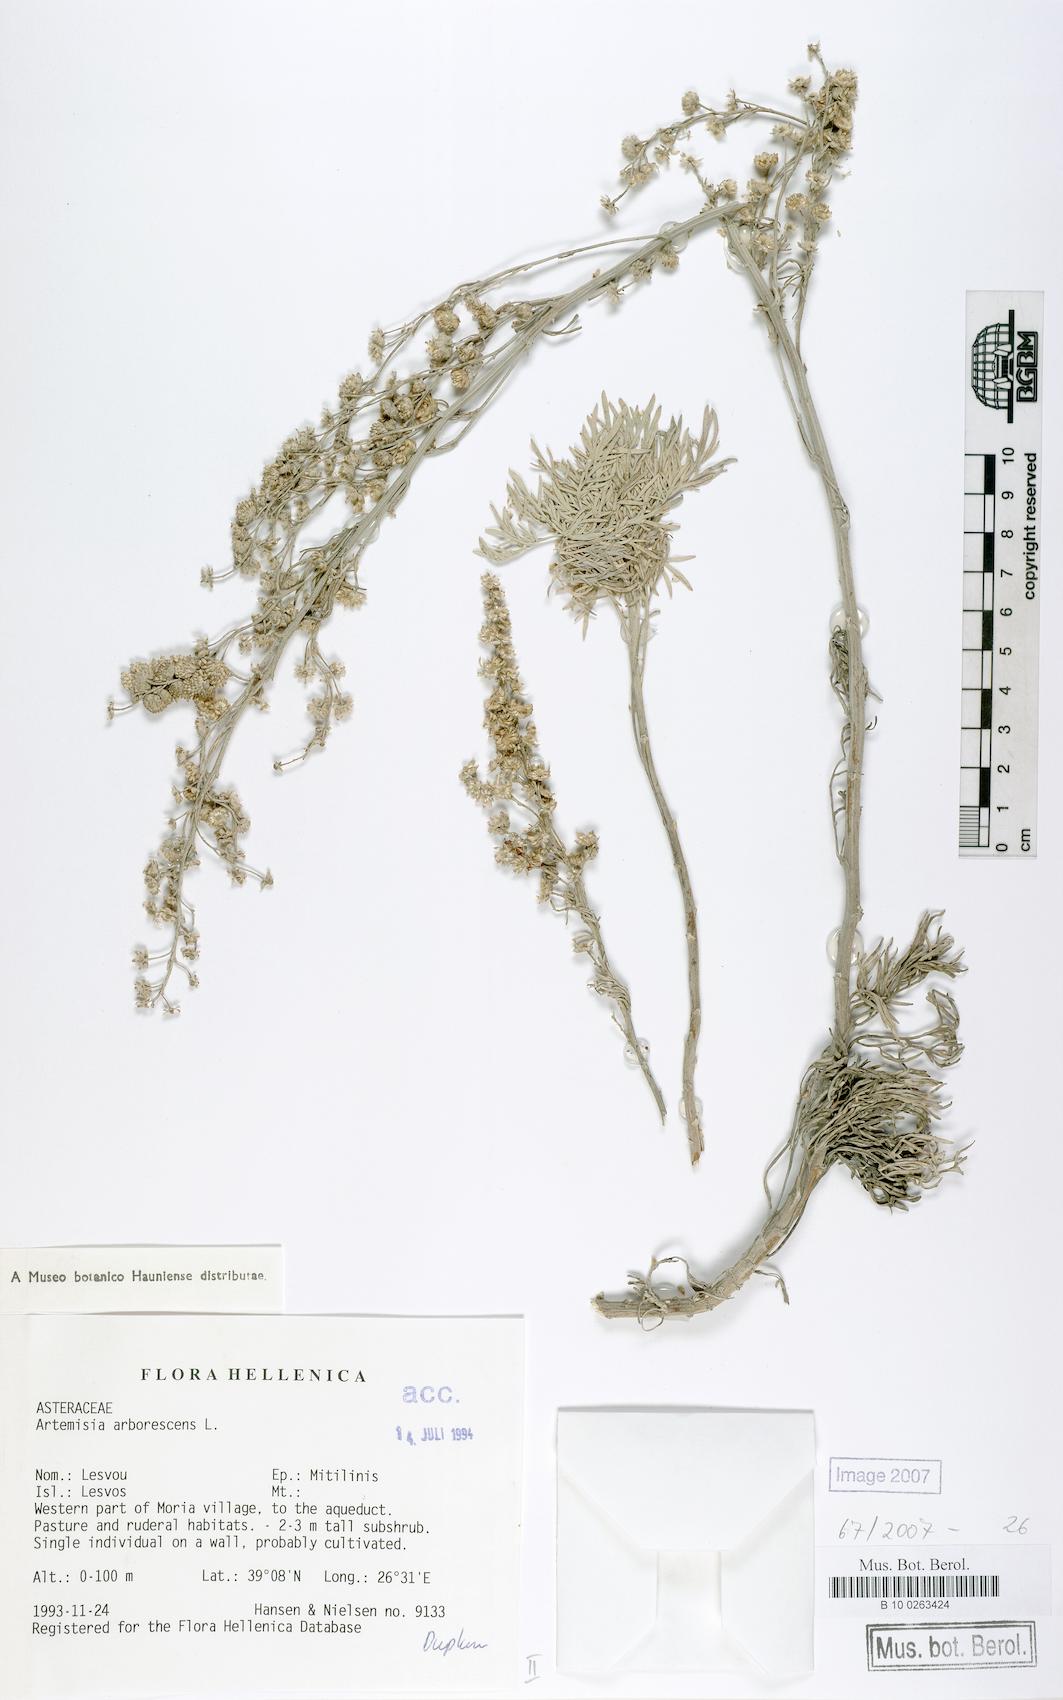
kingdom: Plantae
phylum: Tracheophyta
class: Magnoliopsida
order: Asterales
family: Asteraceae
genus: Artemisia
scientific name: Artemisia arborescens
